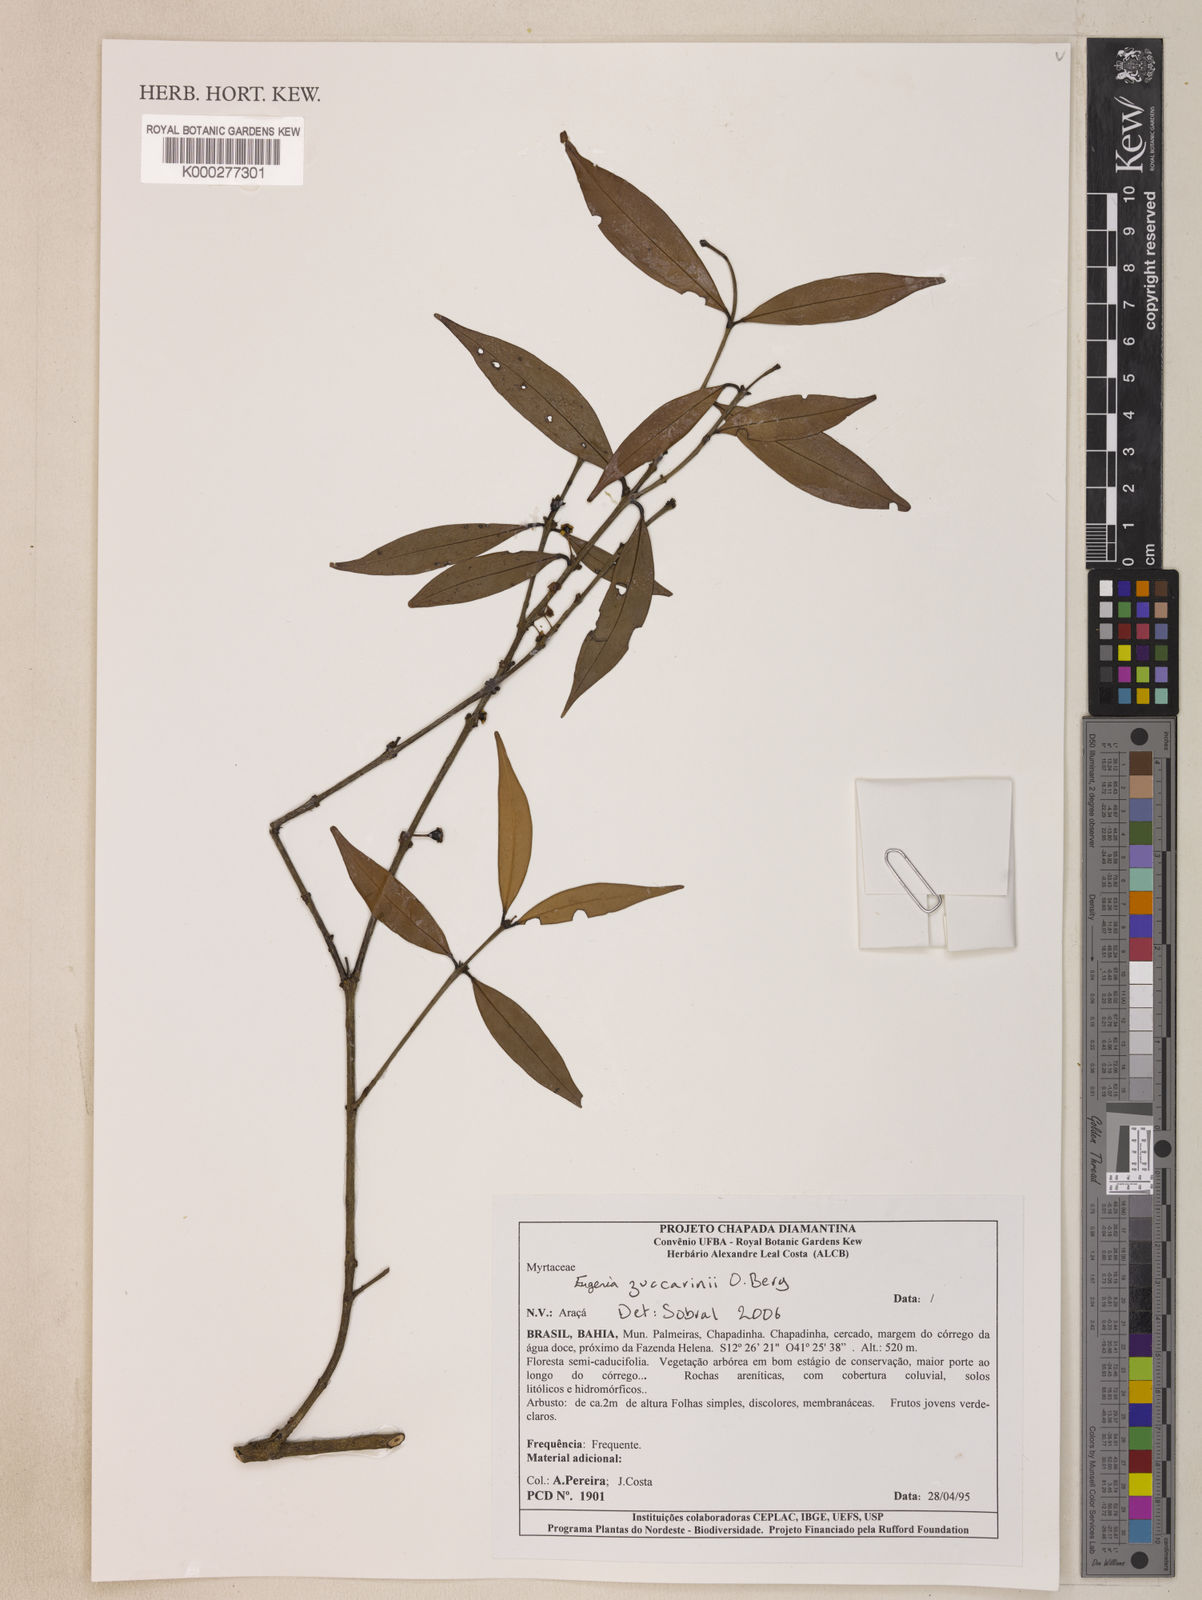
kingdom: Plantae
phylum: Tracheophyta
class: Magnoliopsida
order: Myrtales
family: Myrtaceae
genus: Eugenia
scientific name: Eugenia zuccarinii
